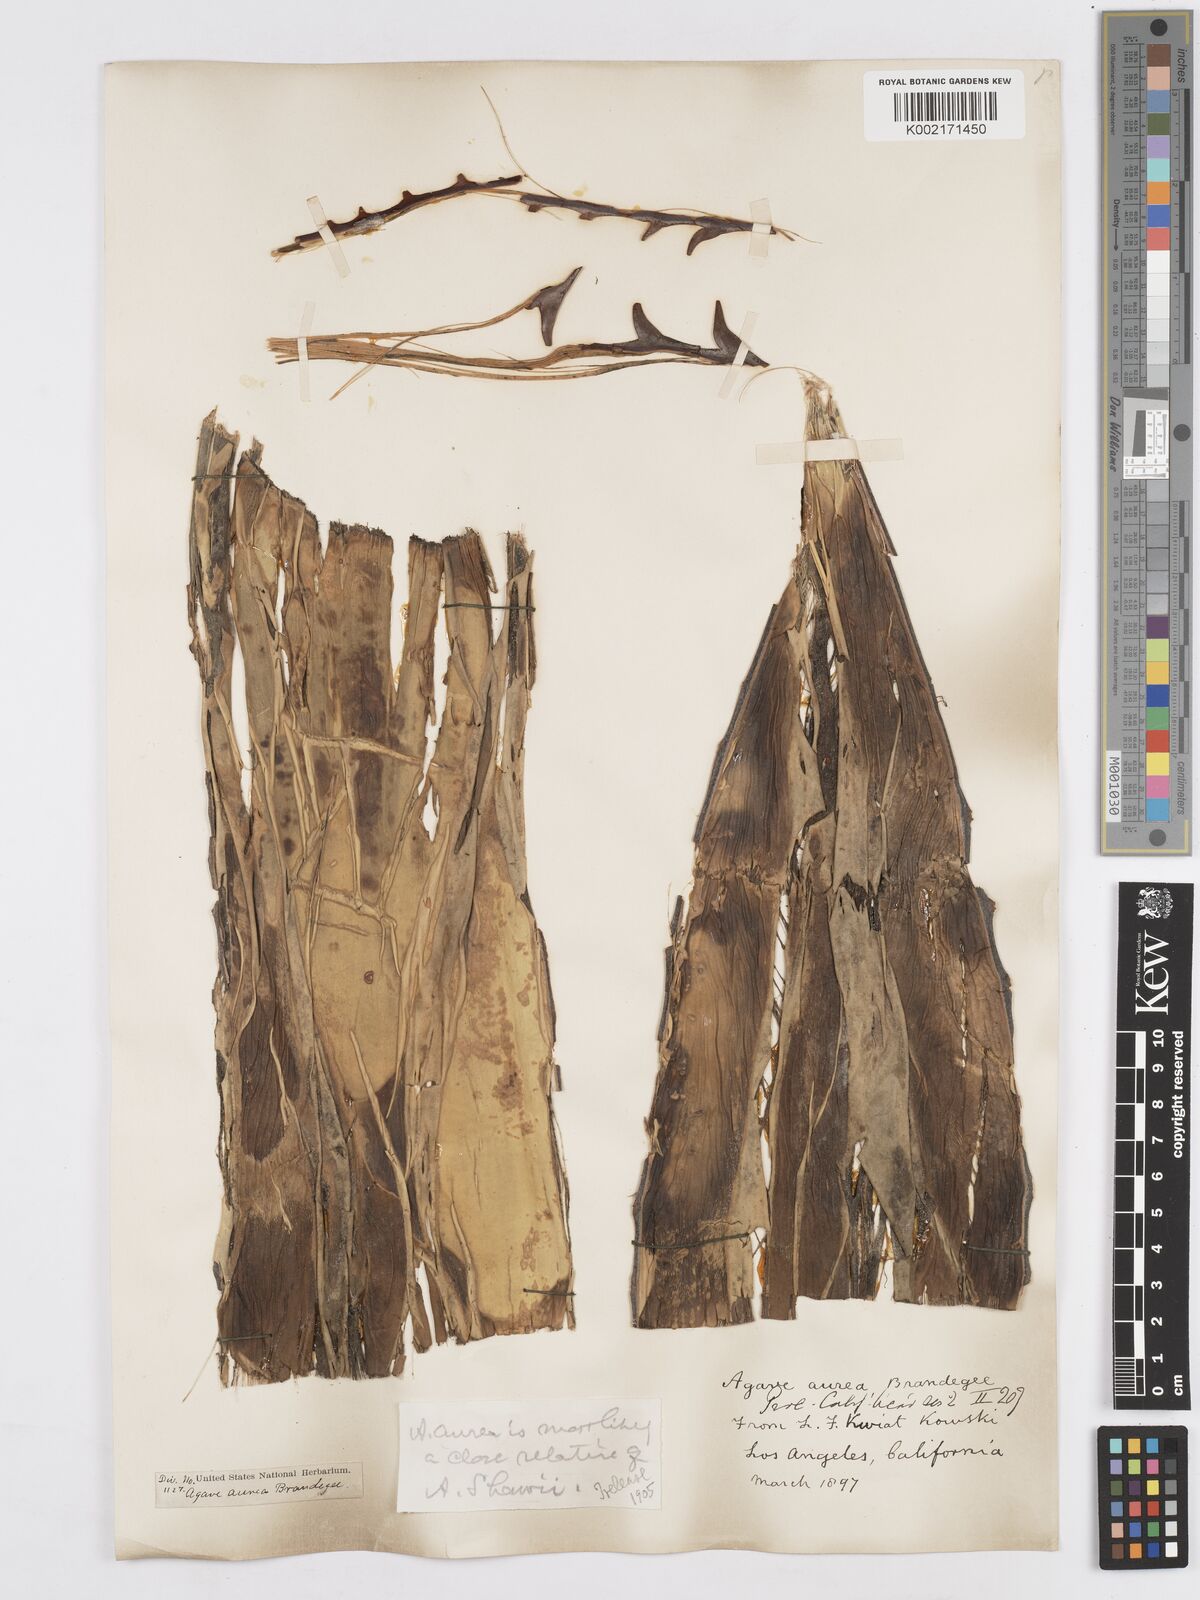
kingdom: Plantae
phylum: Tracheophyta
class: Liliopsida
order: Asparagales
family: Asparagaceae
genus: Agave
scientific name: Agave aurea
